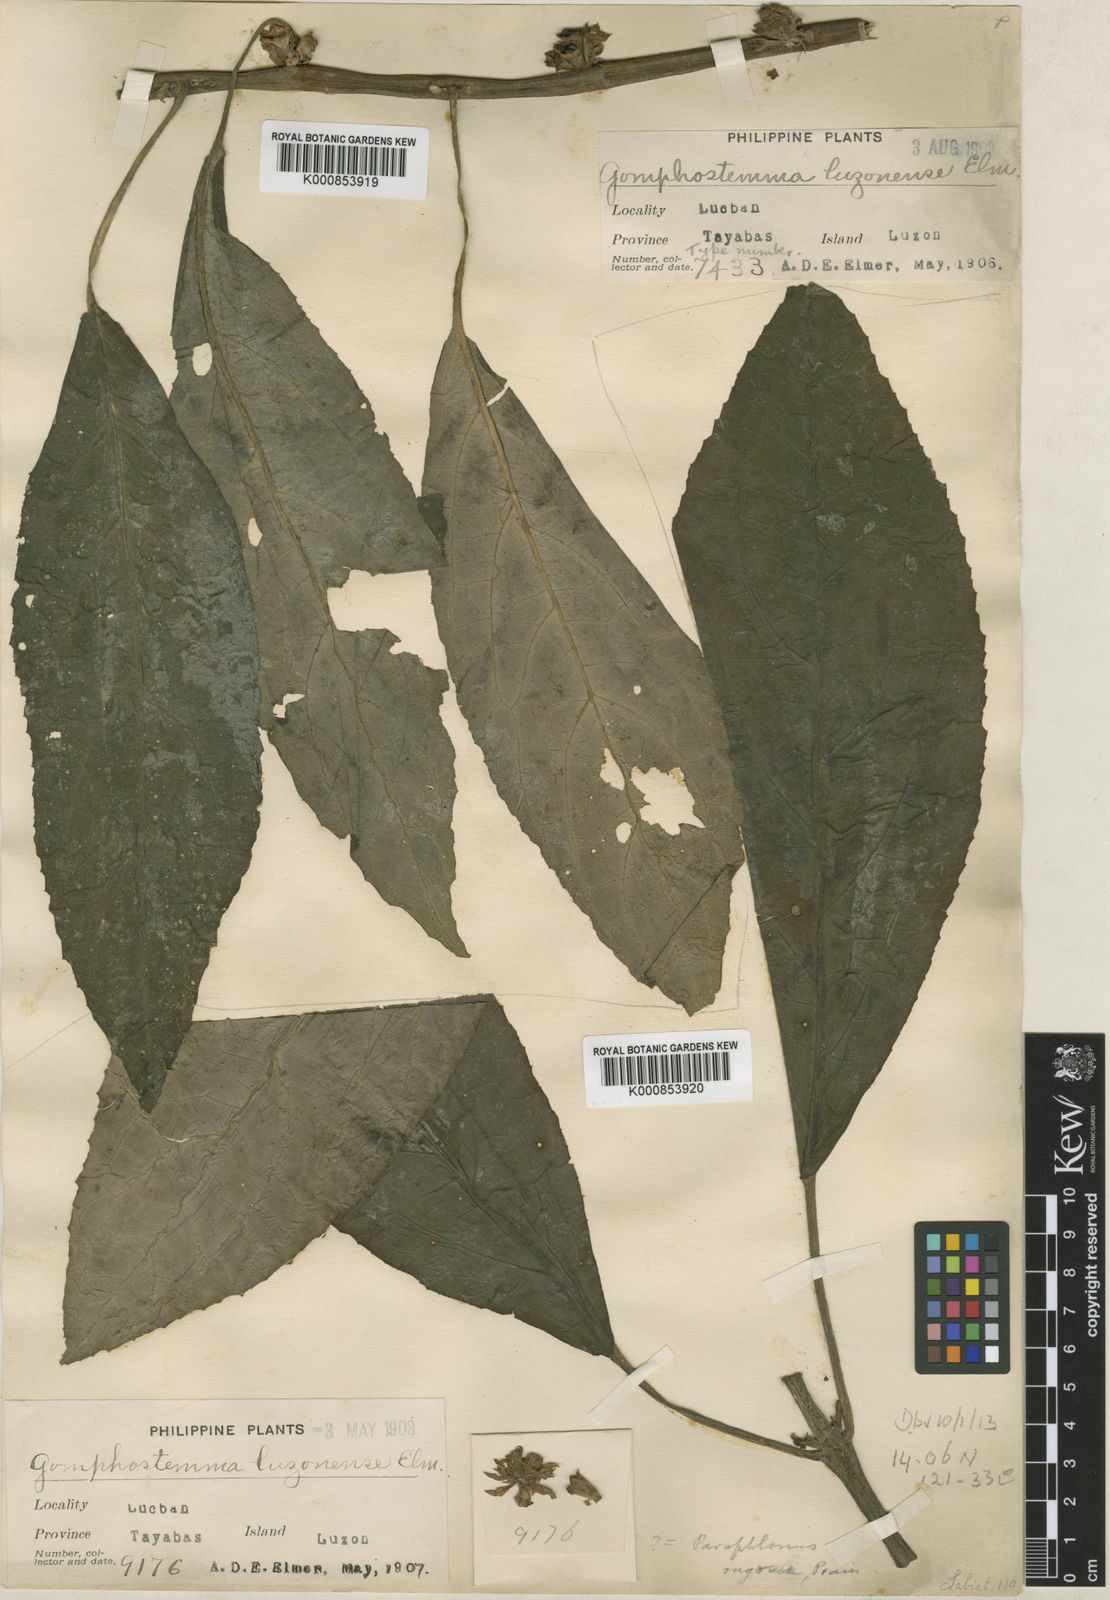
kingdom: Plantae
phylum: Tracheophyta
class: Magnoliopsida
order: Lamiales
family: Lamiaceae
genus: Paraphlomis
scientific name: Paraphlomis javanica
